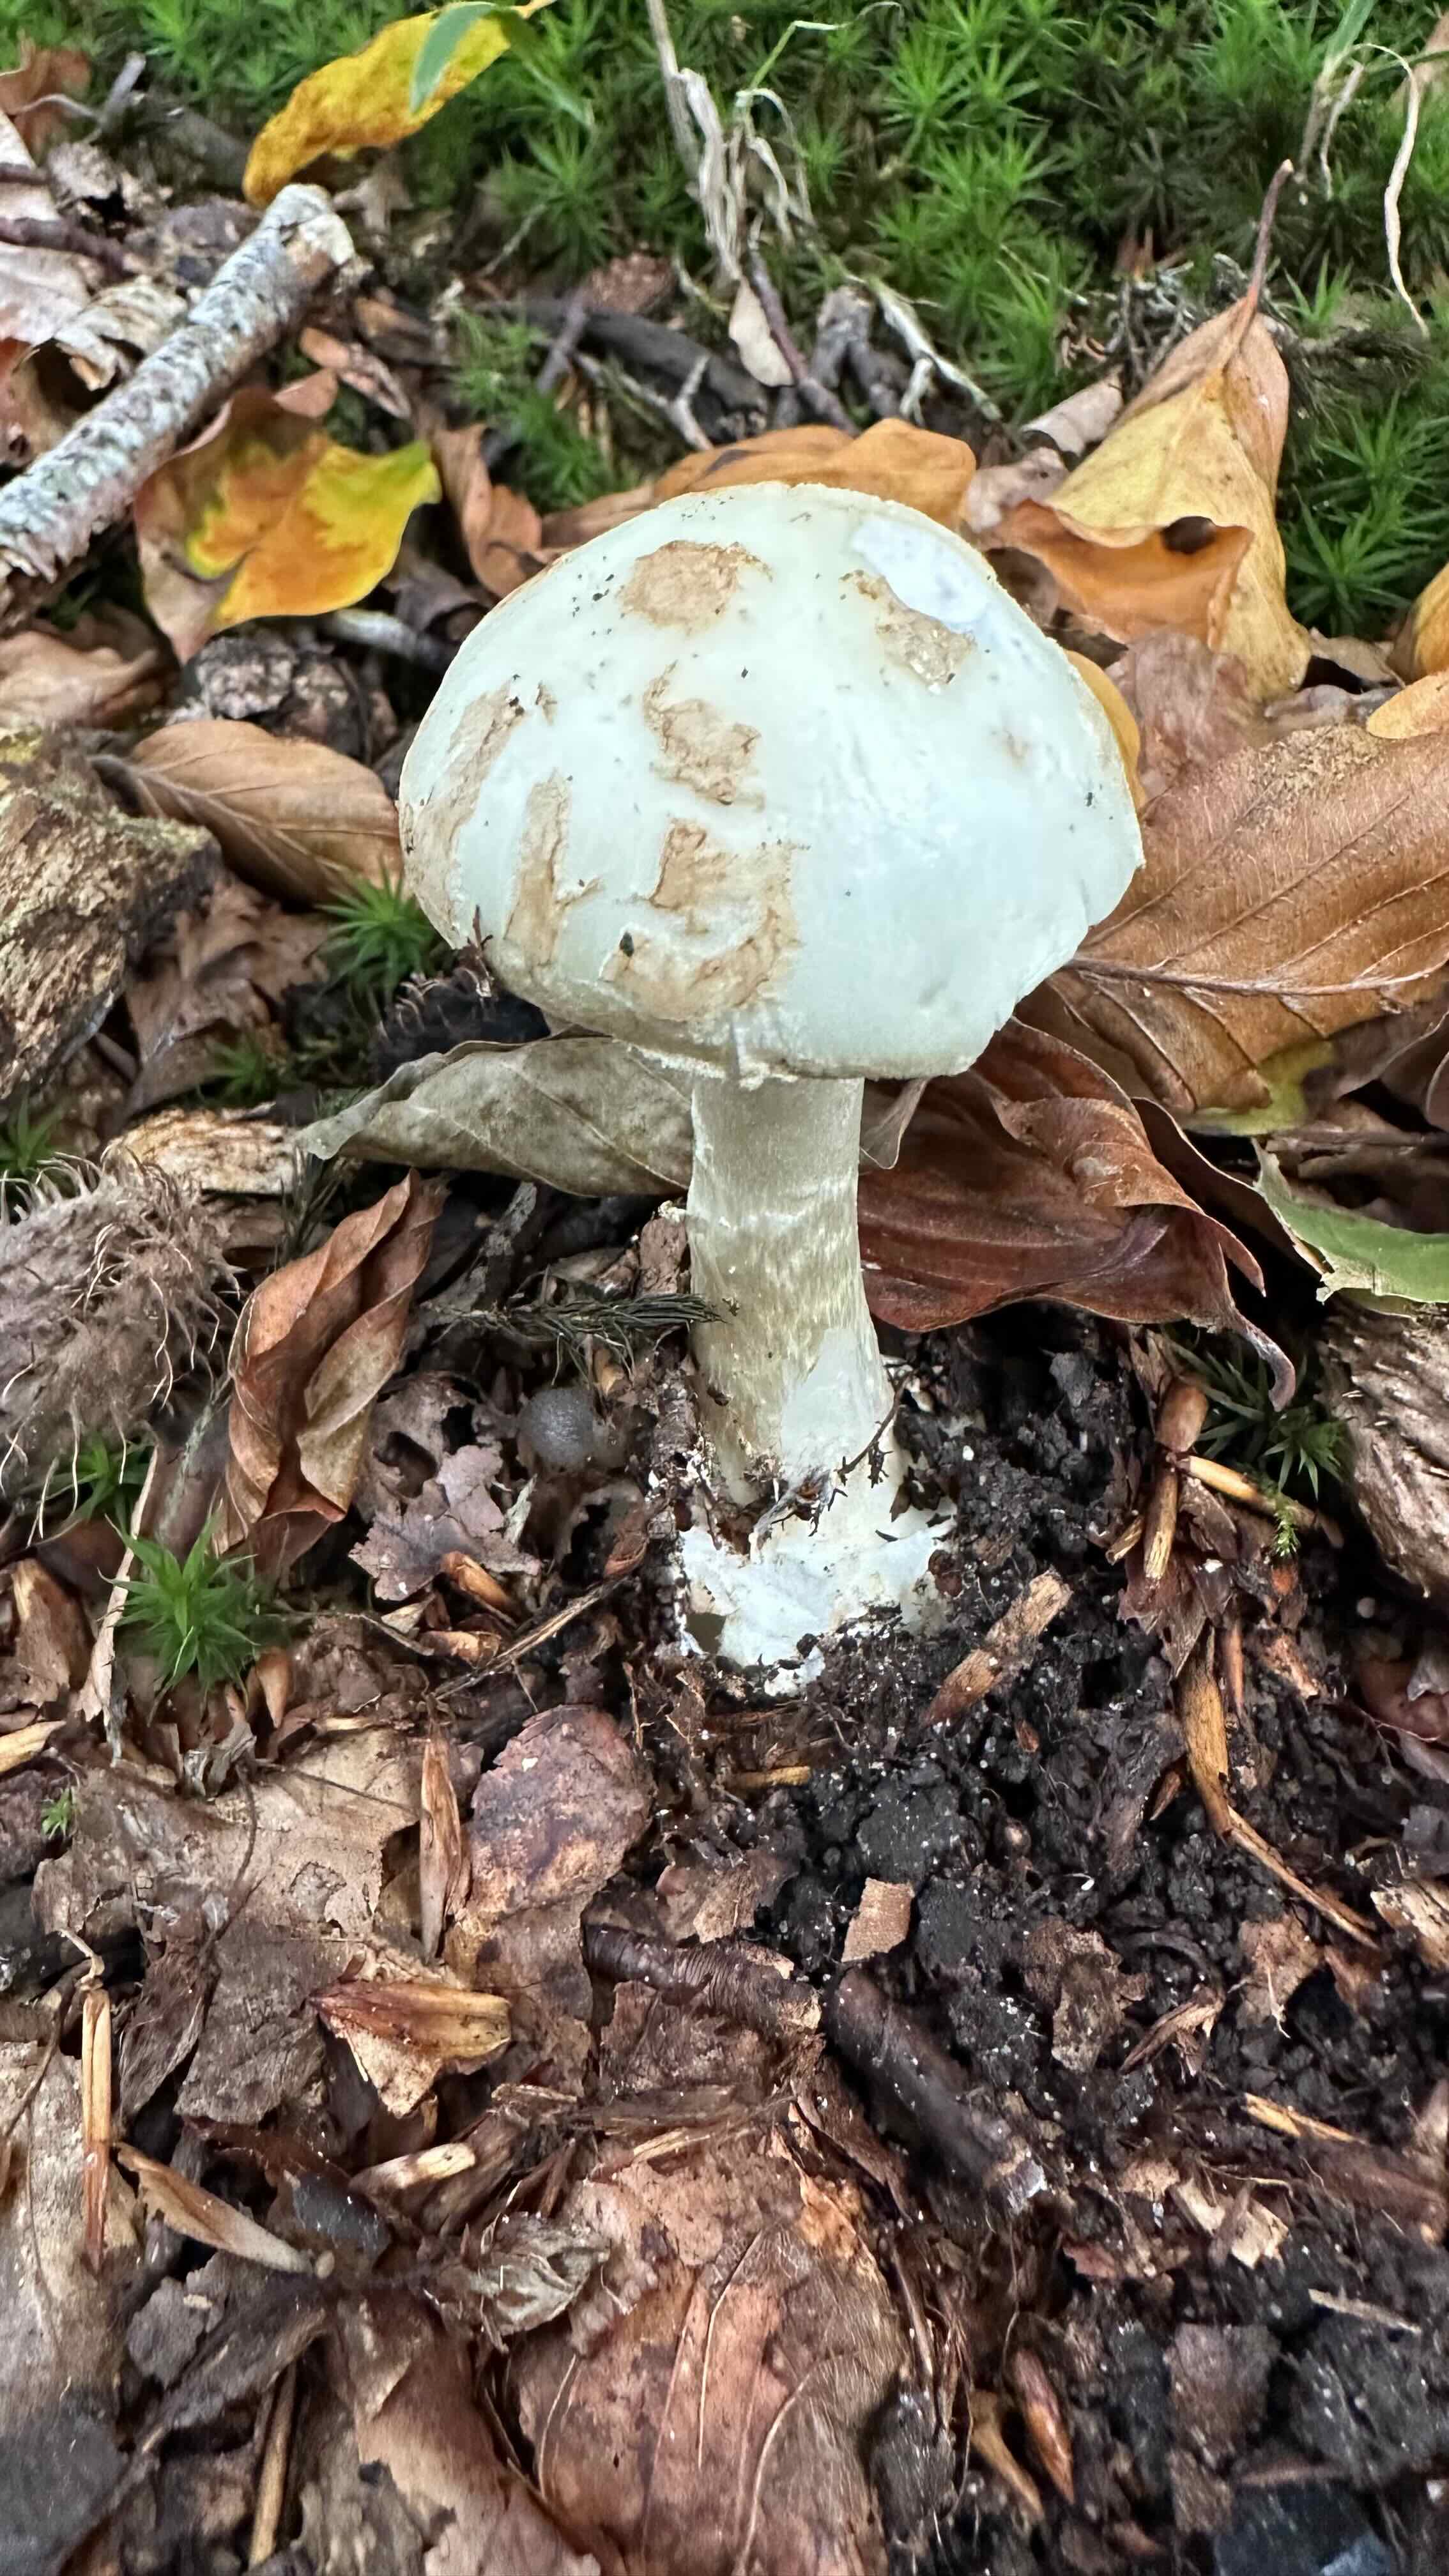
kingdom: Fungi
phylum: Basidiomycota
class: Agaricomycetes
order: Agaricales
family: Amanitaceae
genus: Amanita
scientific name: Amanita citrina
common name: kugleknoldet fluesvamp
